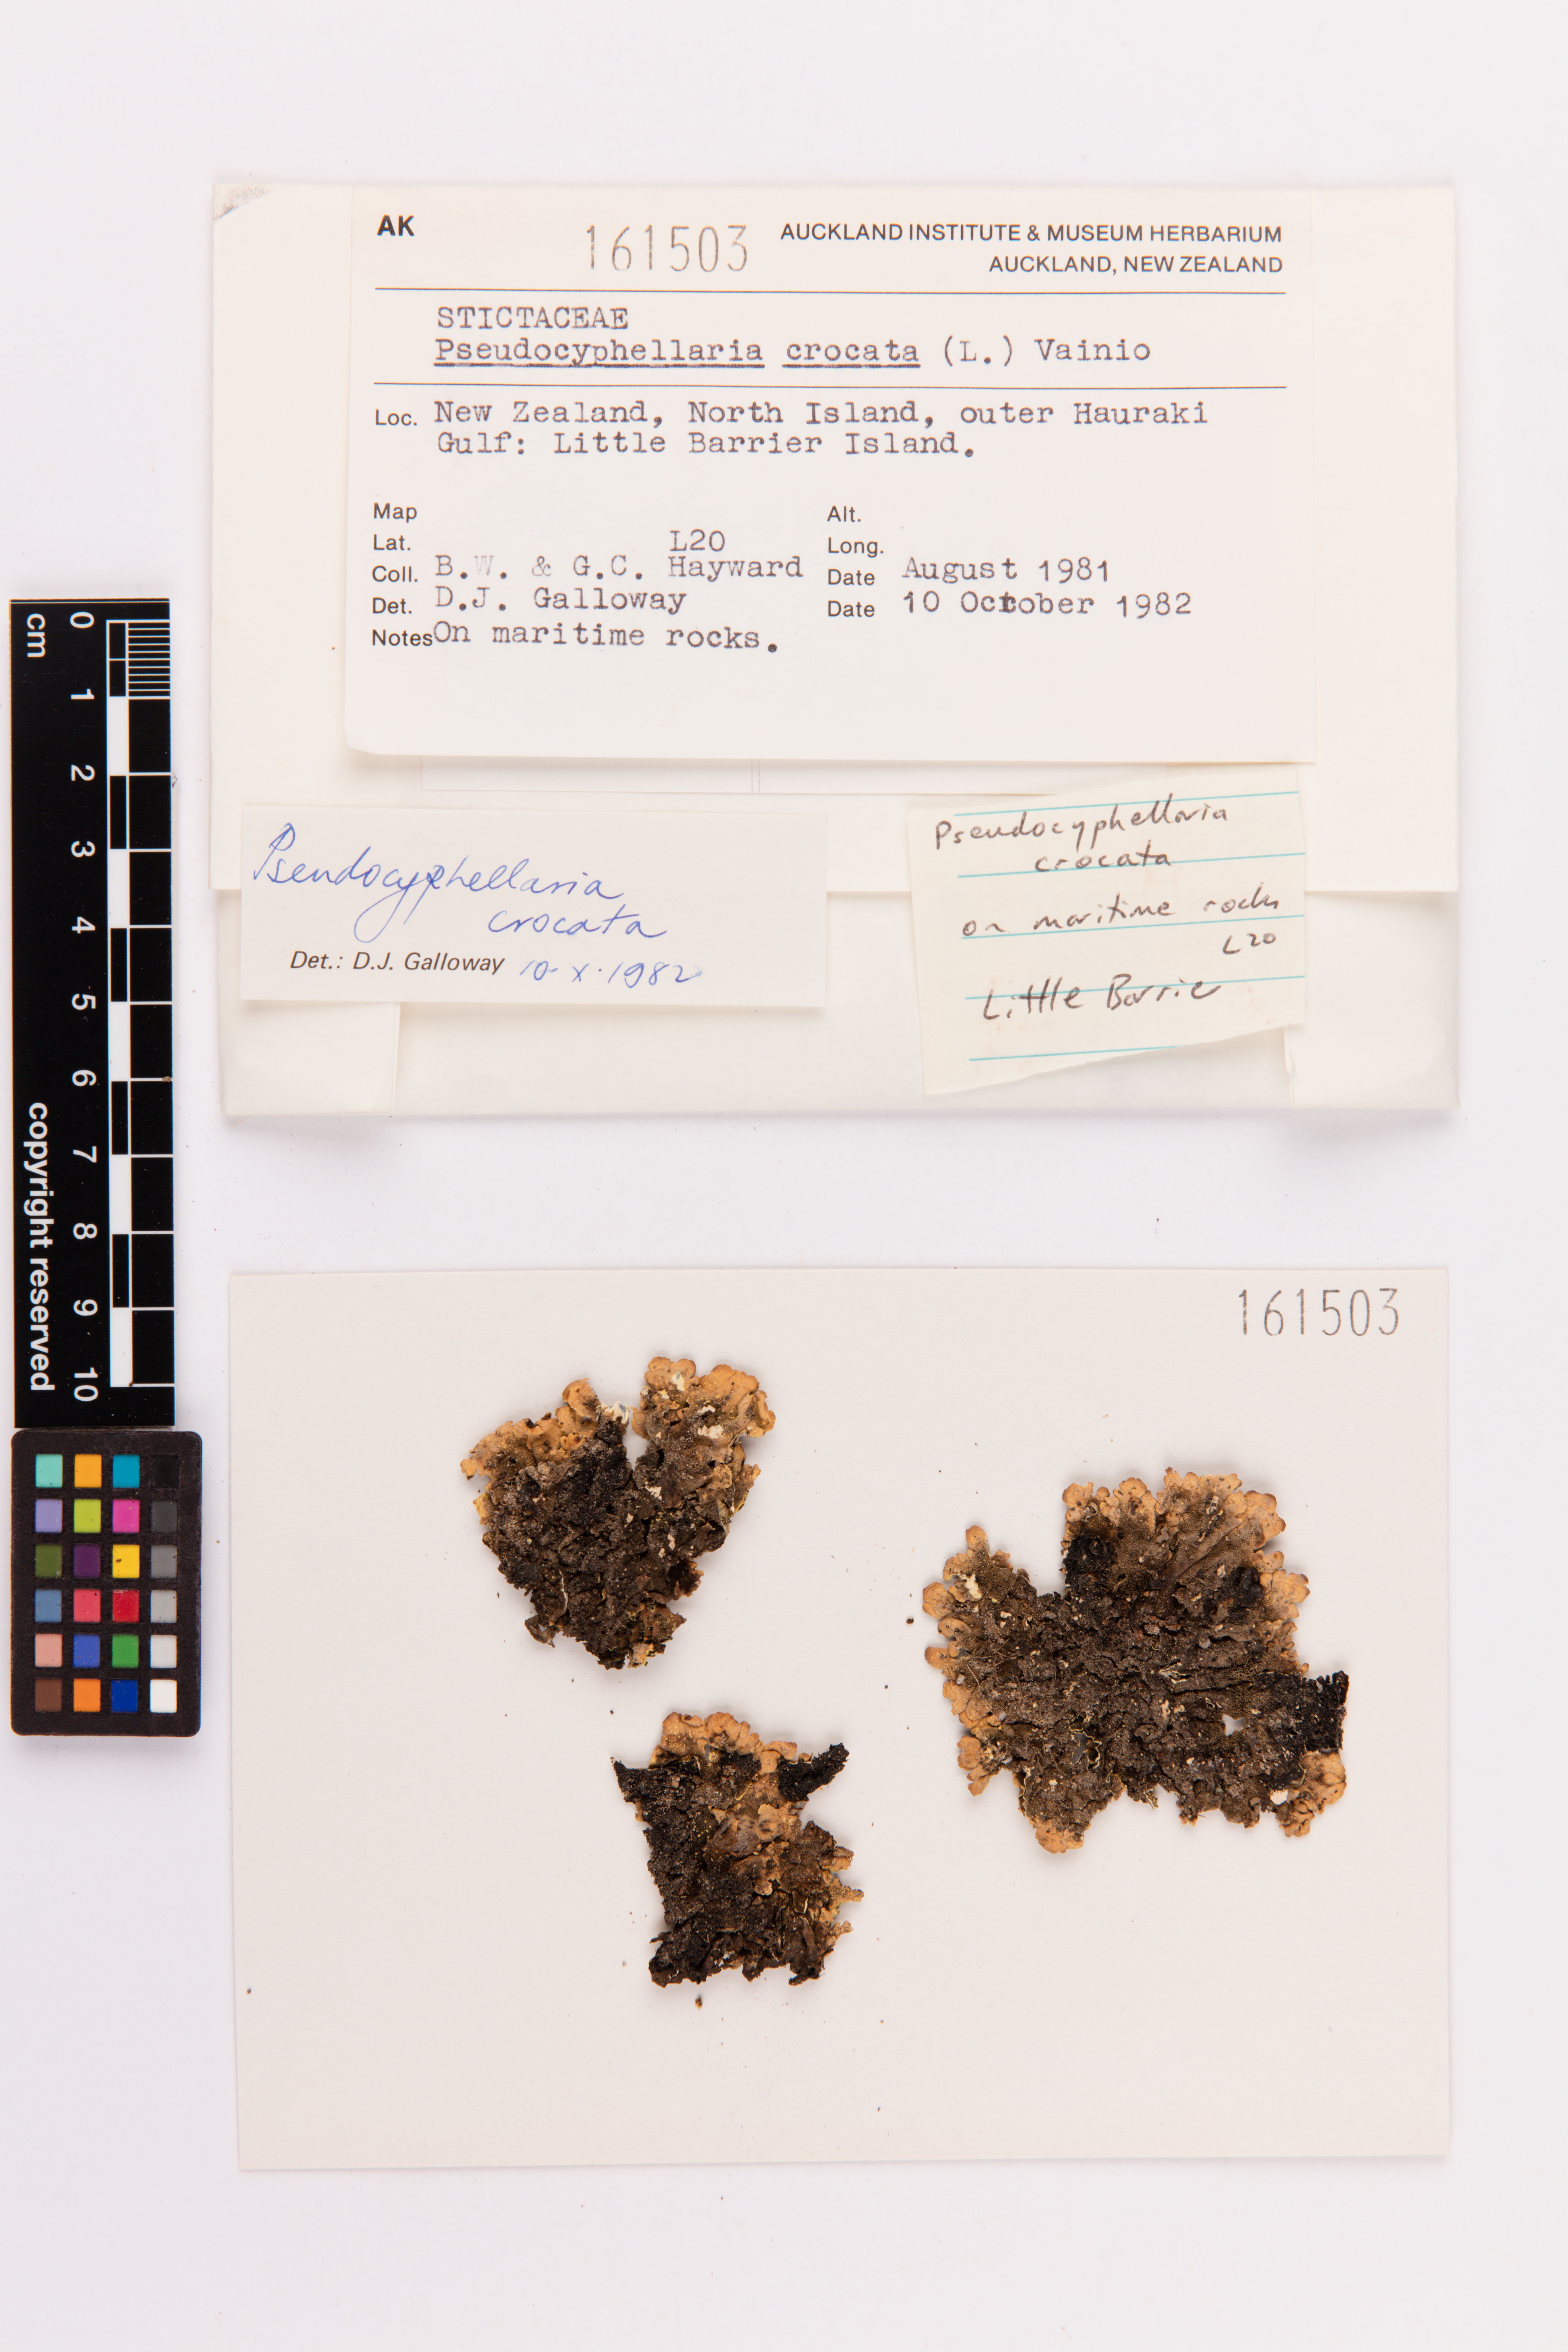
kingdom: Fungi
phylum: Ascomycota
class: Lecanoromycetes
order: Peltigerales
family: Lobariaceae
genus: Pseudocyphellaria
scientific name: Pseudocyphellaria crocata
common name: Golden specklebelly
